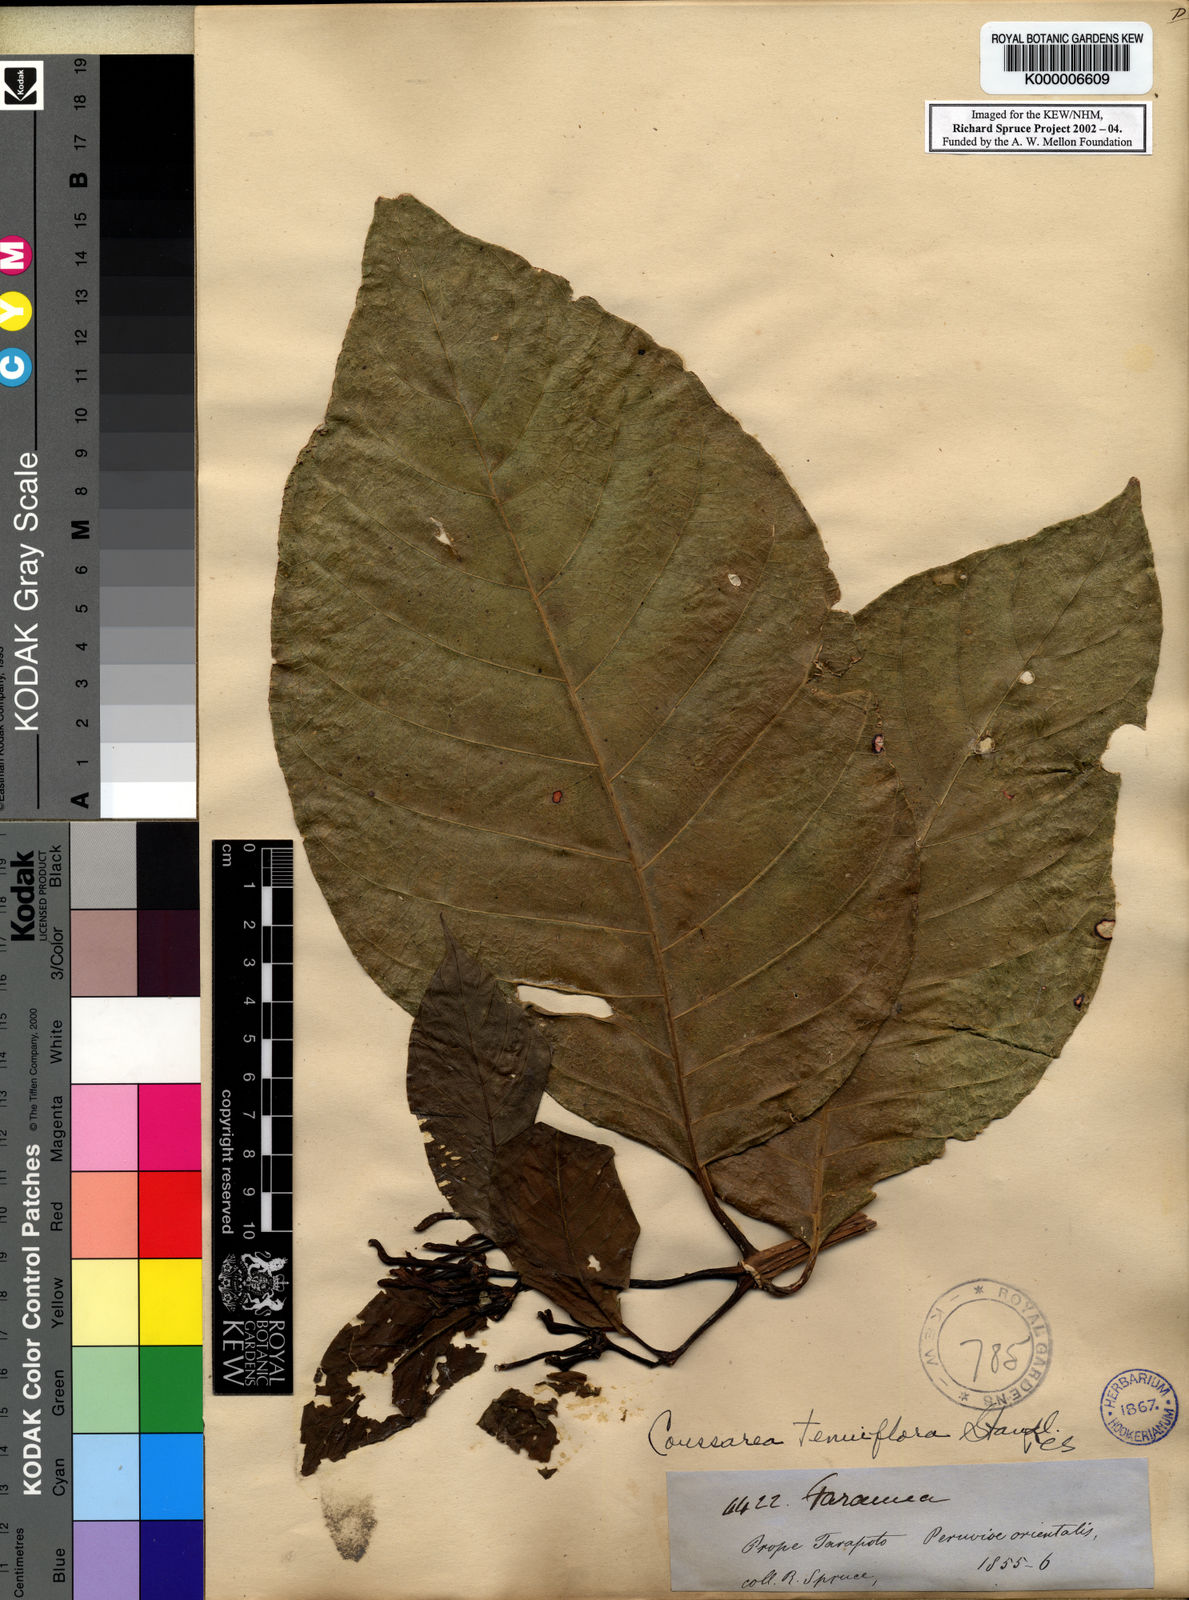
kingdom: Plantae
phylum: Tracheophyta
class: Magnoliopsida
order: Gentianales
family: Rubiaceae
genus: Coussarea
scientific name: Coussarea tenuiflora
